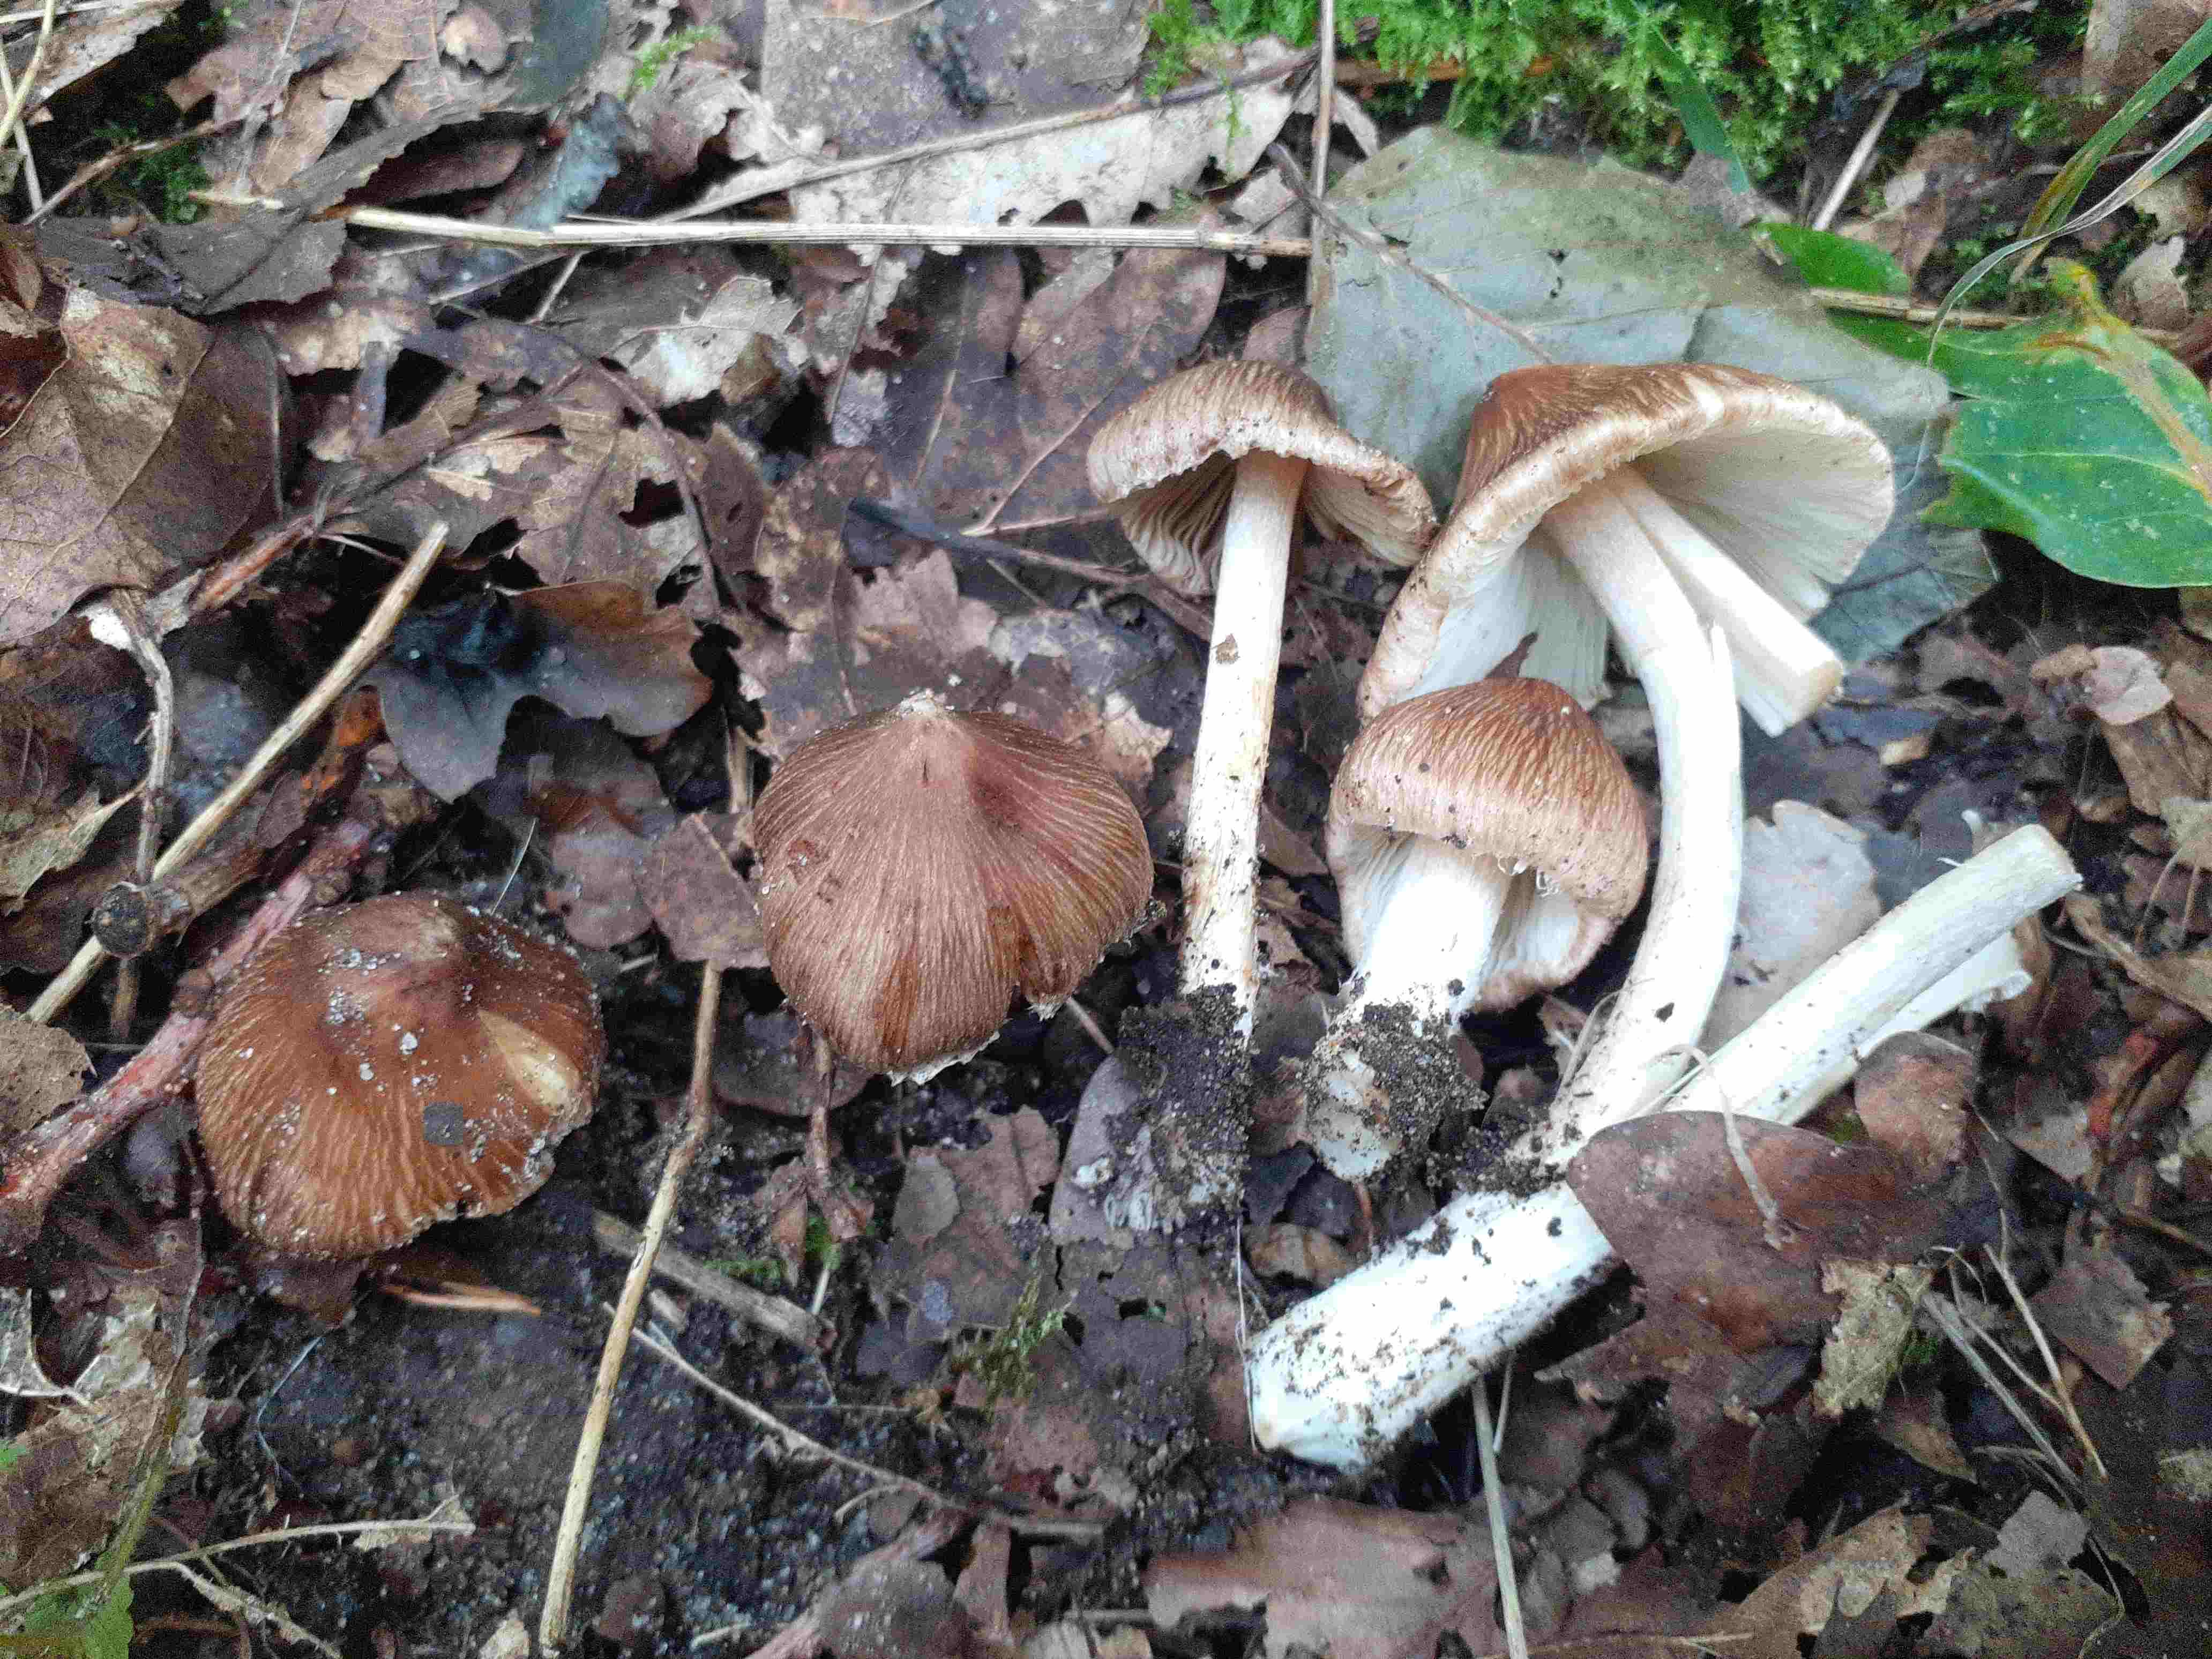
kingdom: Fungi
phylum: Basidiomycota
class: Agaricomycetes
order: Agaricales
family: Inocybaceae
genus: Inosperma
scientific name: Inosperma
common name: Trævlhat
